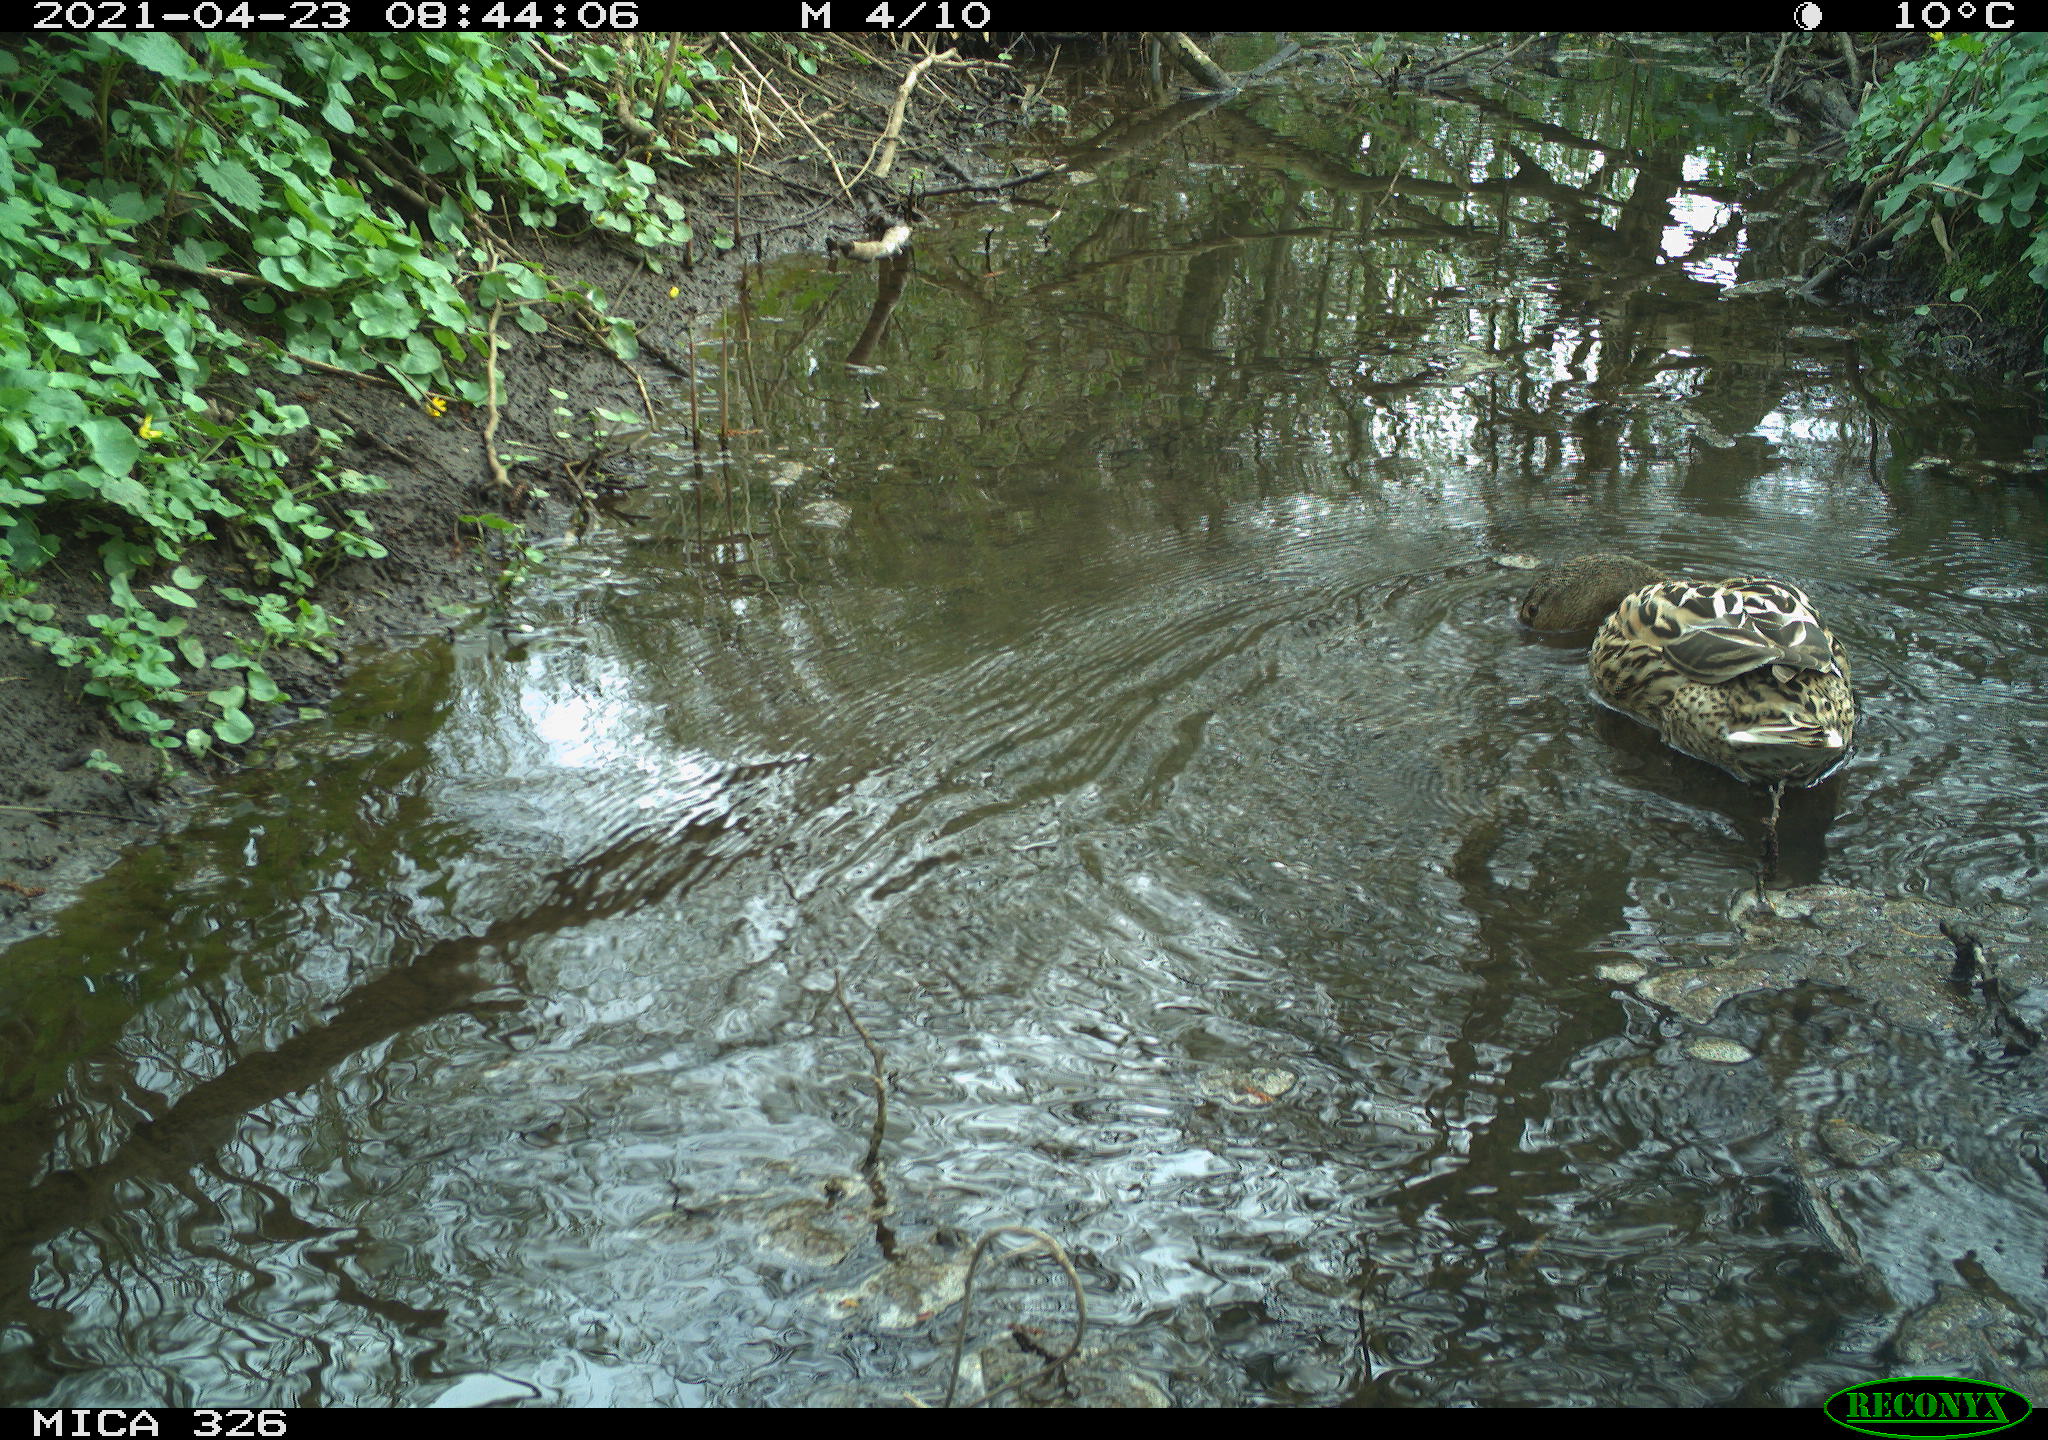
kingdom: Animalia
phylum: Chordata
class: Aves
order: Anseriformes
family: Anatidae
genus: Anas
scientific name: Anas platyrhynchos
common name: Mallard
